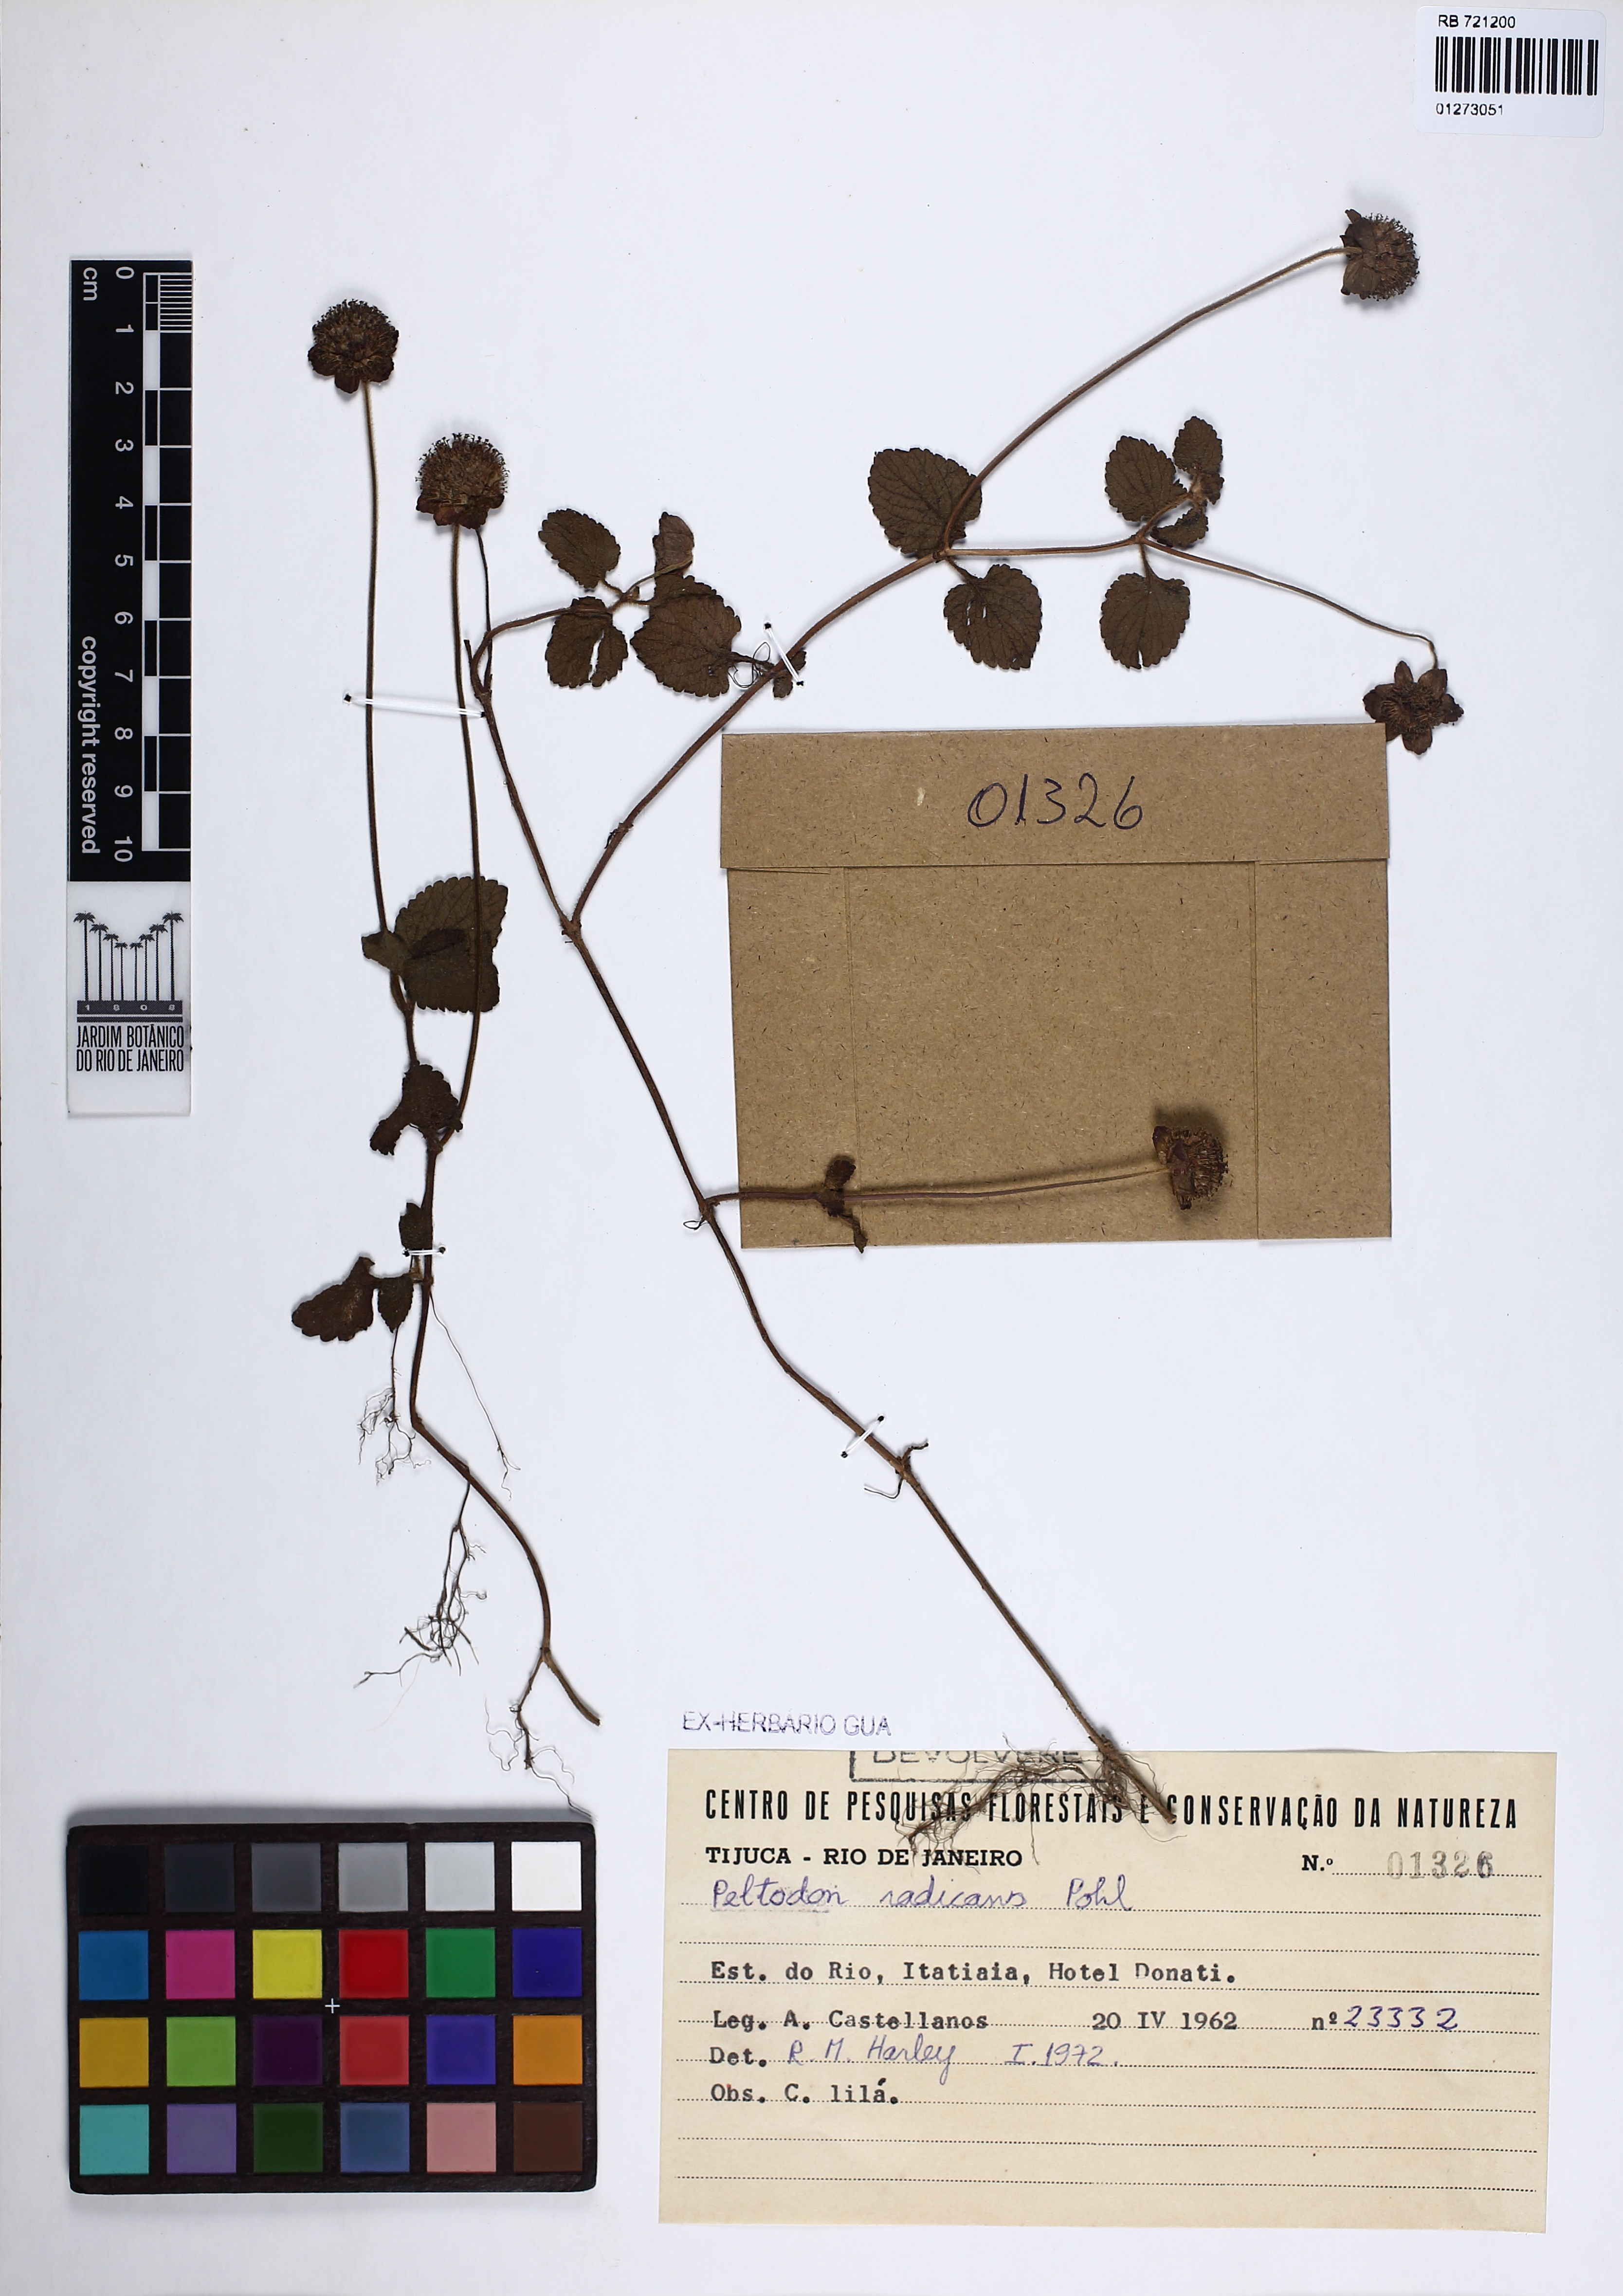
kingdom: Plantae
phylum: Tracheophyta
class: Magnoliopsida
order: Lamiales
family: Lamiaceae
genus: Hyptis
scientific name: Hyptis radicans
